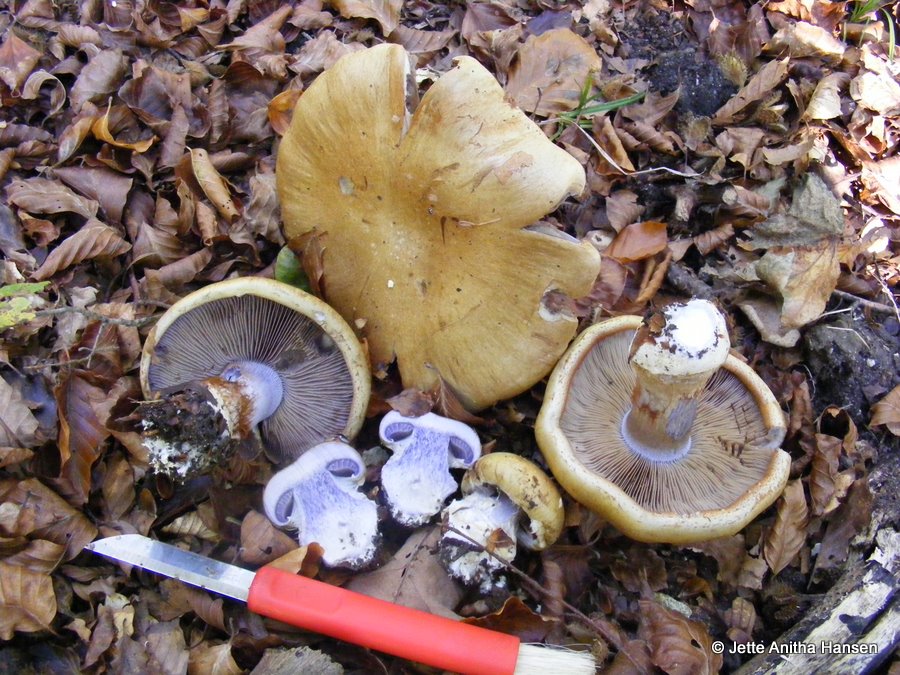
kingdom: Fungi
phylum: Basidiomycota
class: Agaricomycetes
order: Agaricales
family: Cortinariaceae
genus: Cortinarius
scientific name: Cortinarius anserinus
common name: bøge-slørhat
